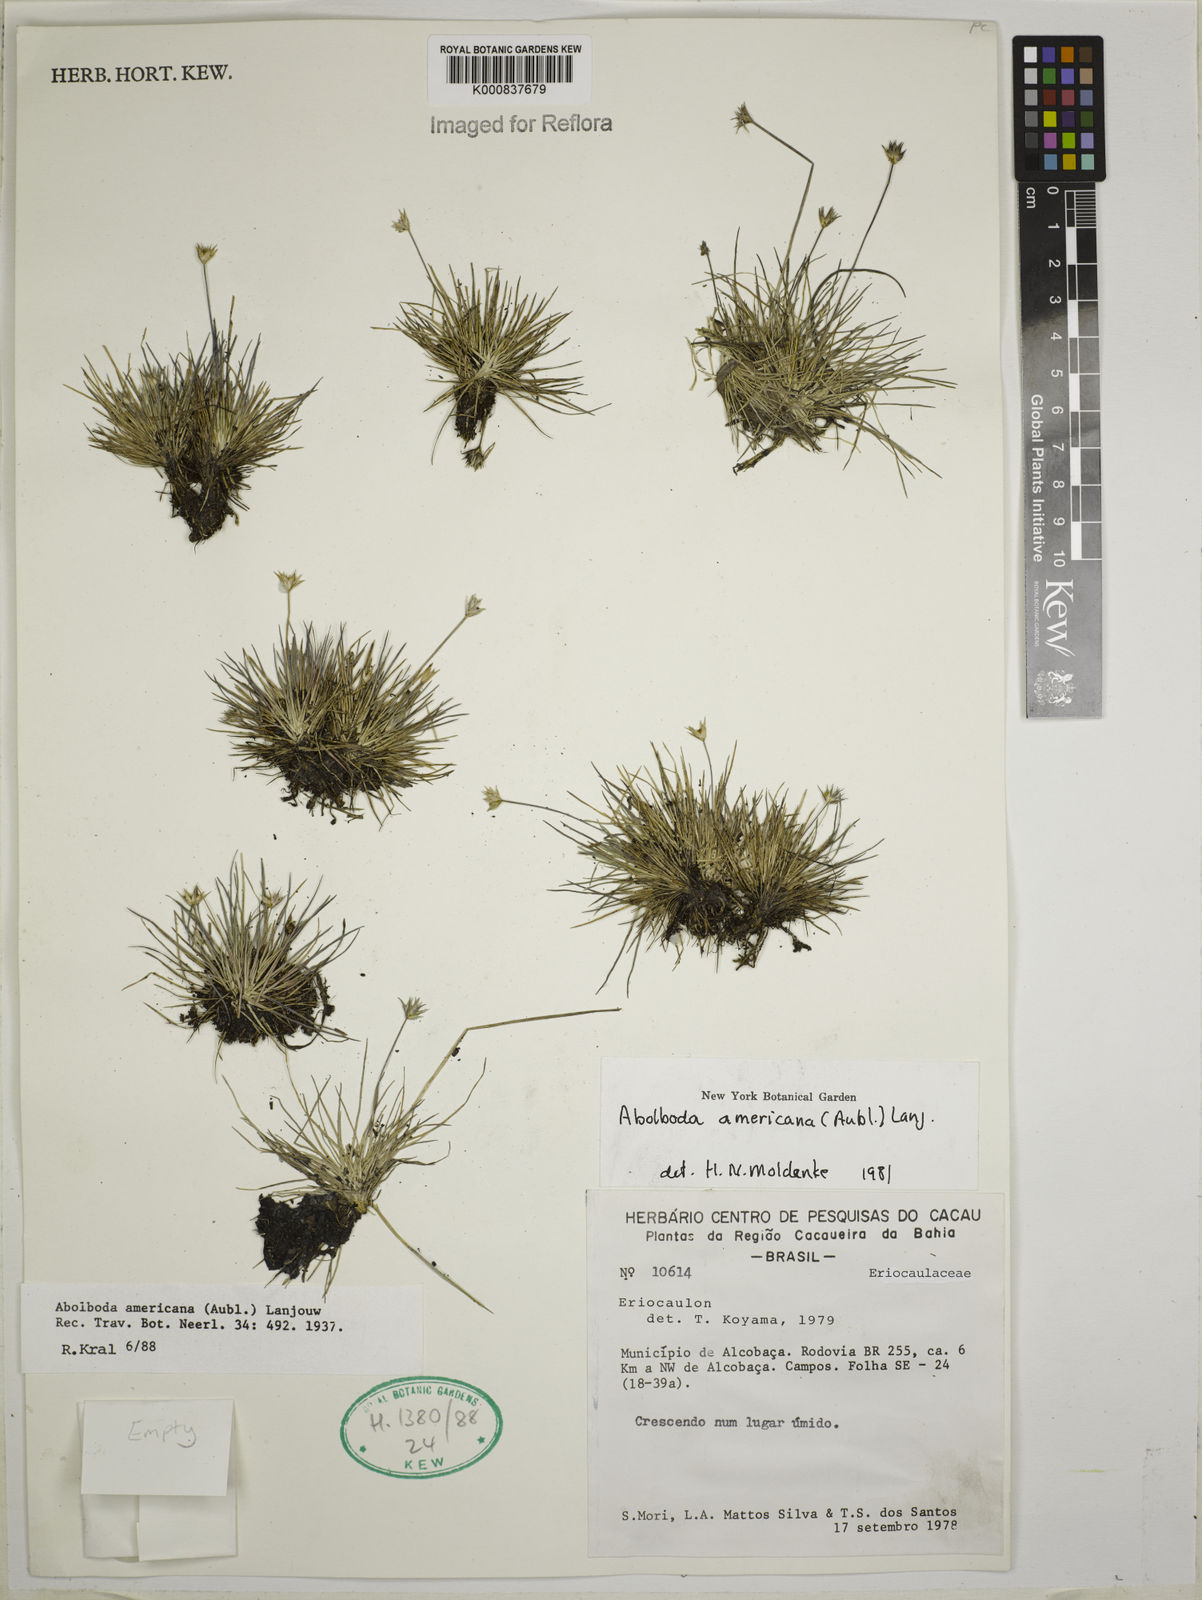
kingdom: Plantae
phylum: Tracheophyta
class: Liliopsida
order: Poales
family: Xyridaceae
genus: Abolboda
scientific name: Abolboda americana
